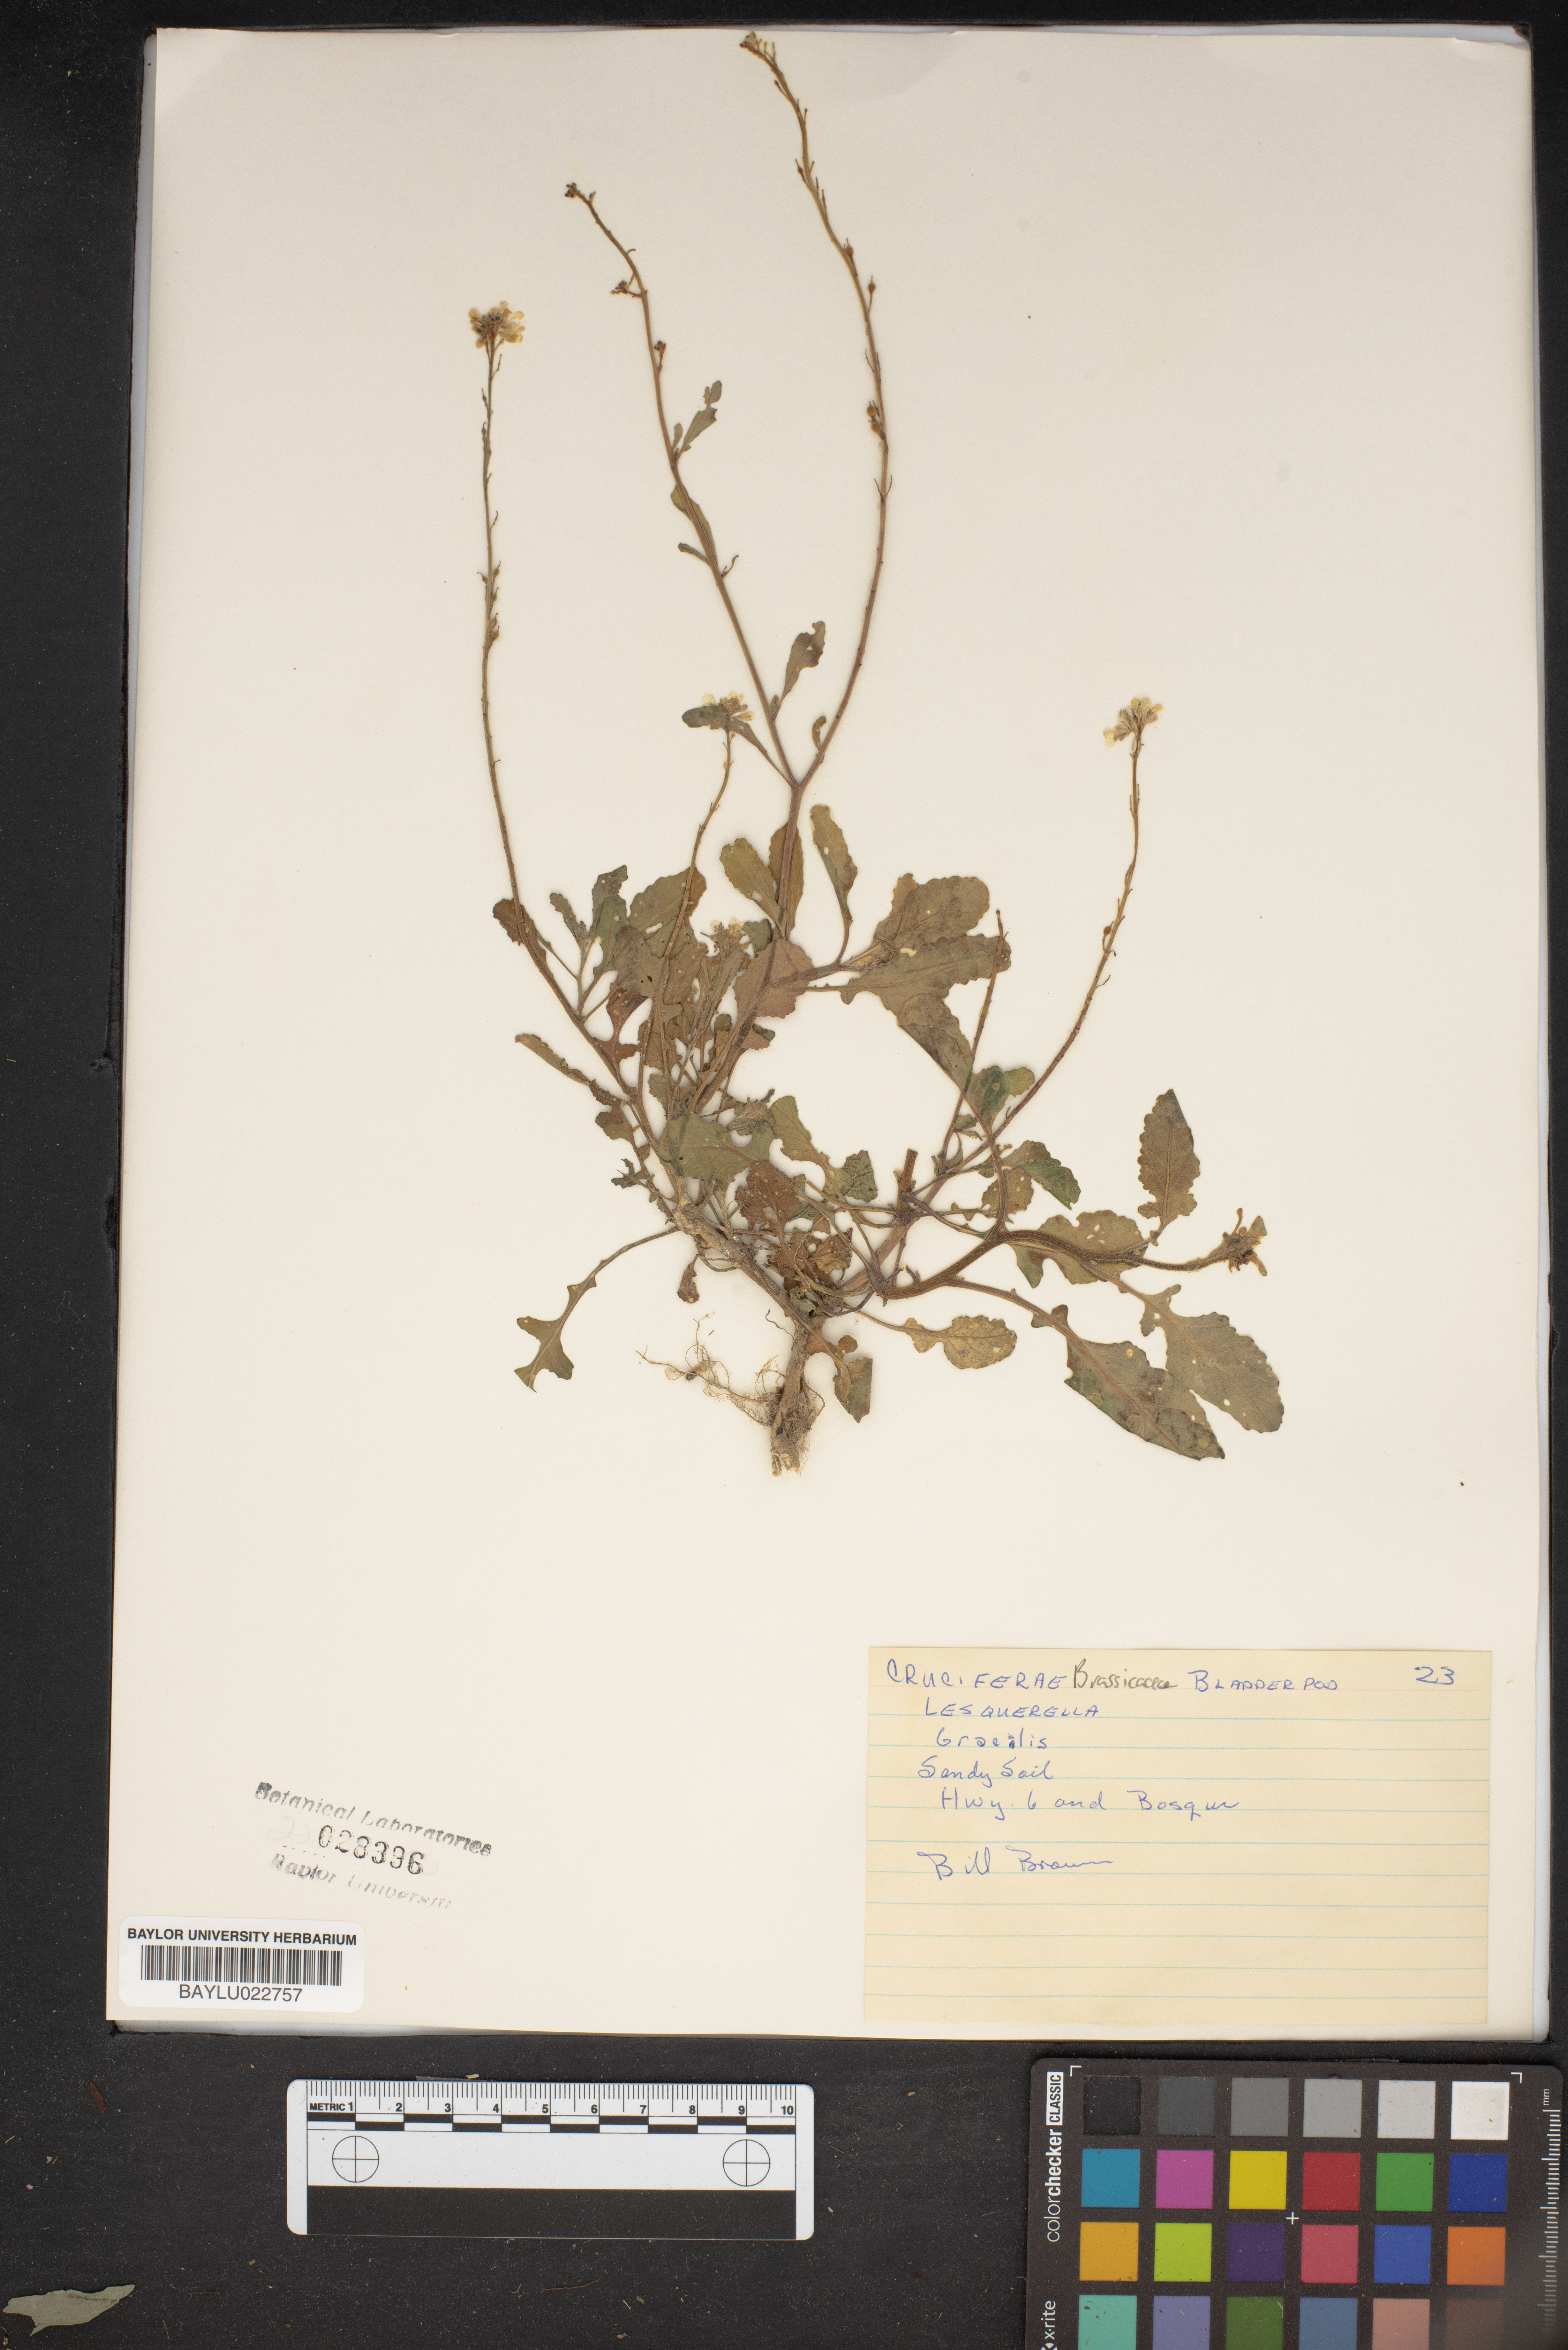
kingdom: Plantae
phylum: Tracheophyta
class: Magnoliopsida
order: Brassicales
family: Brassicaceae
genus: Physaria
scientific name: Physaria gracilis
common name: Spreading bladderpod
